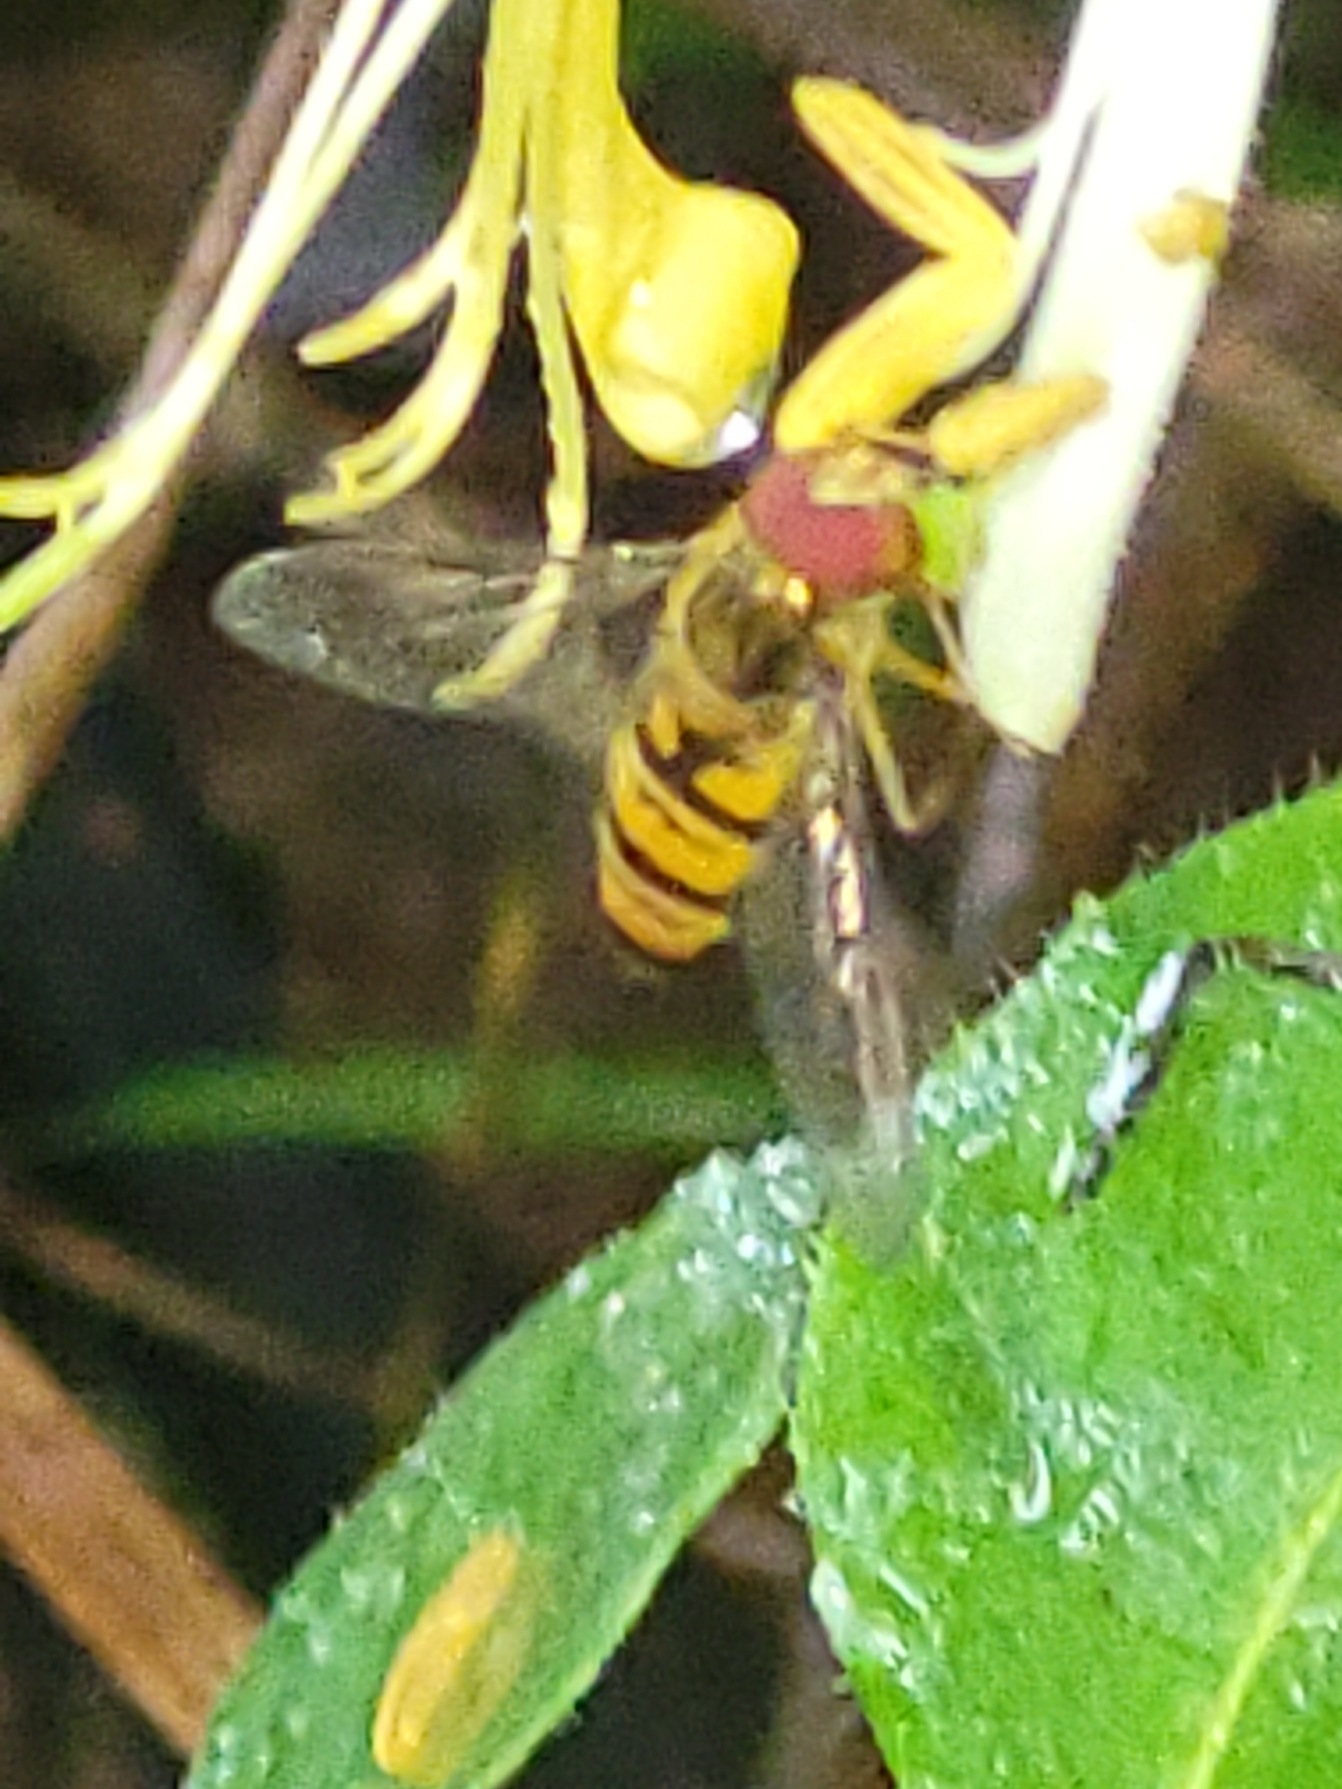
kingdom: Animalia
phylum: Arthropoda
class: Insecta
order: Diptera
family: Syrphidae
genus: Episyrphus
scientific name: Episyrphus balteatus
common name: Dobbeltbåndet svirreflue
